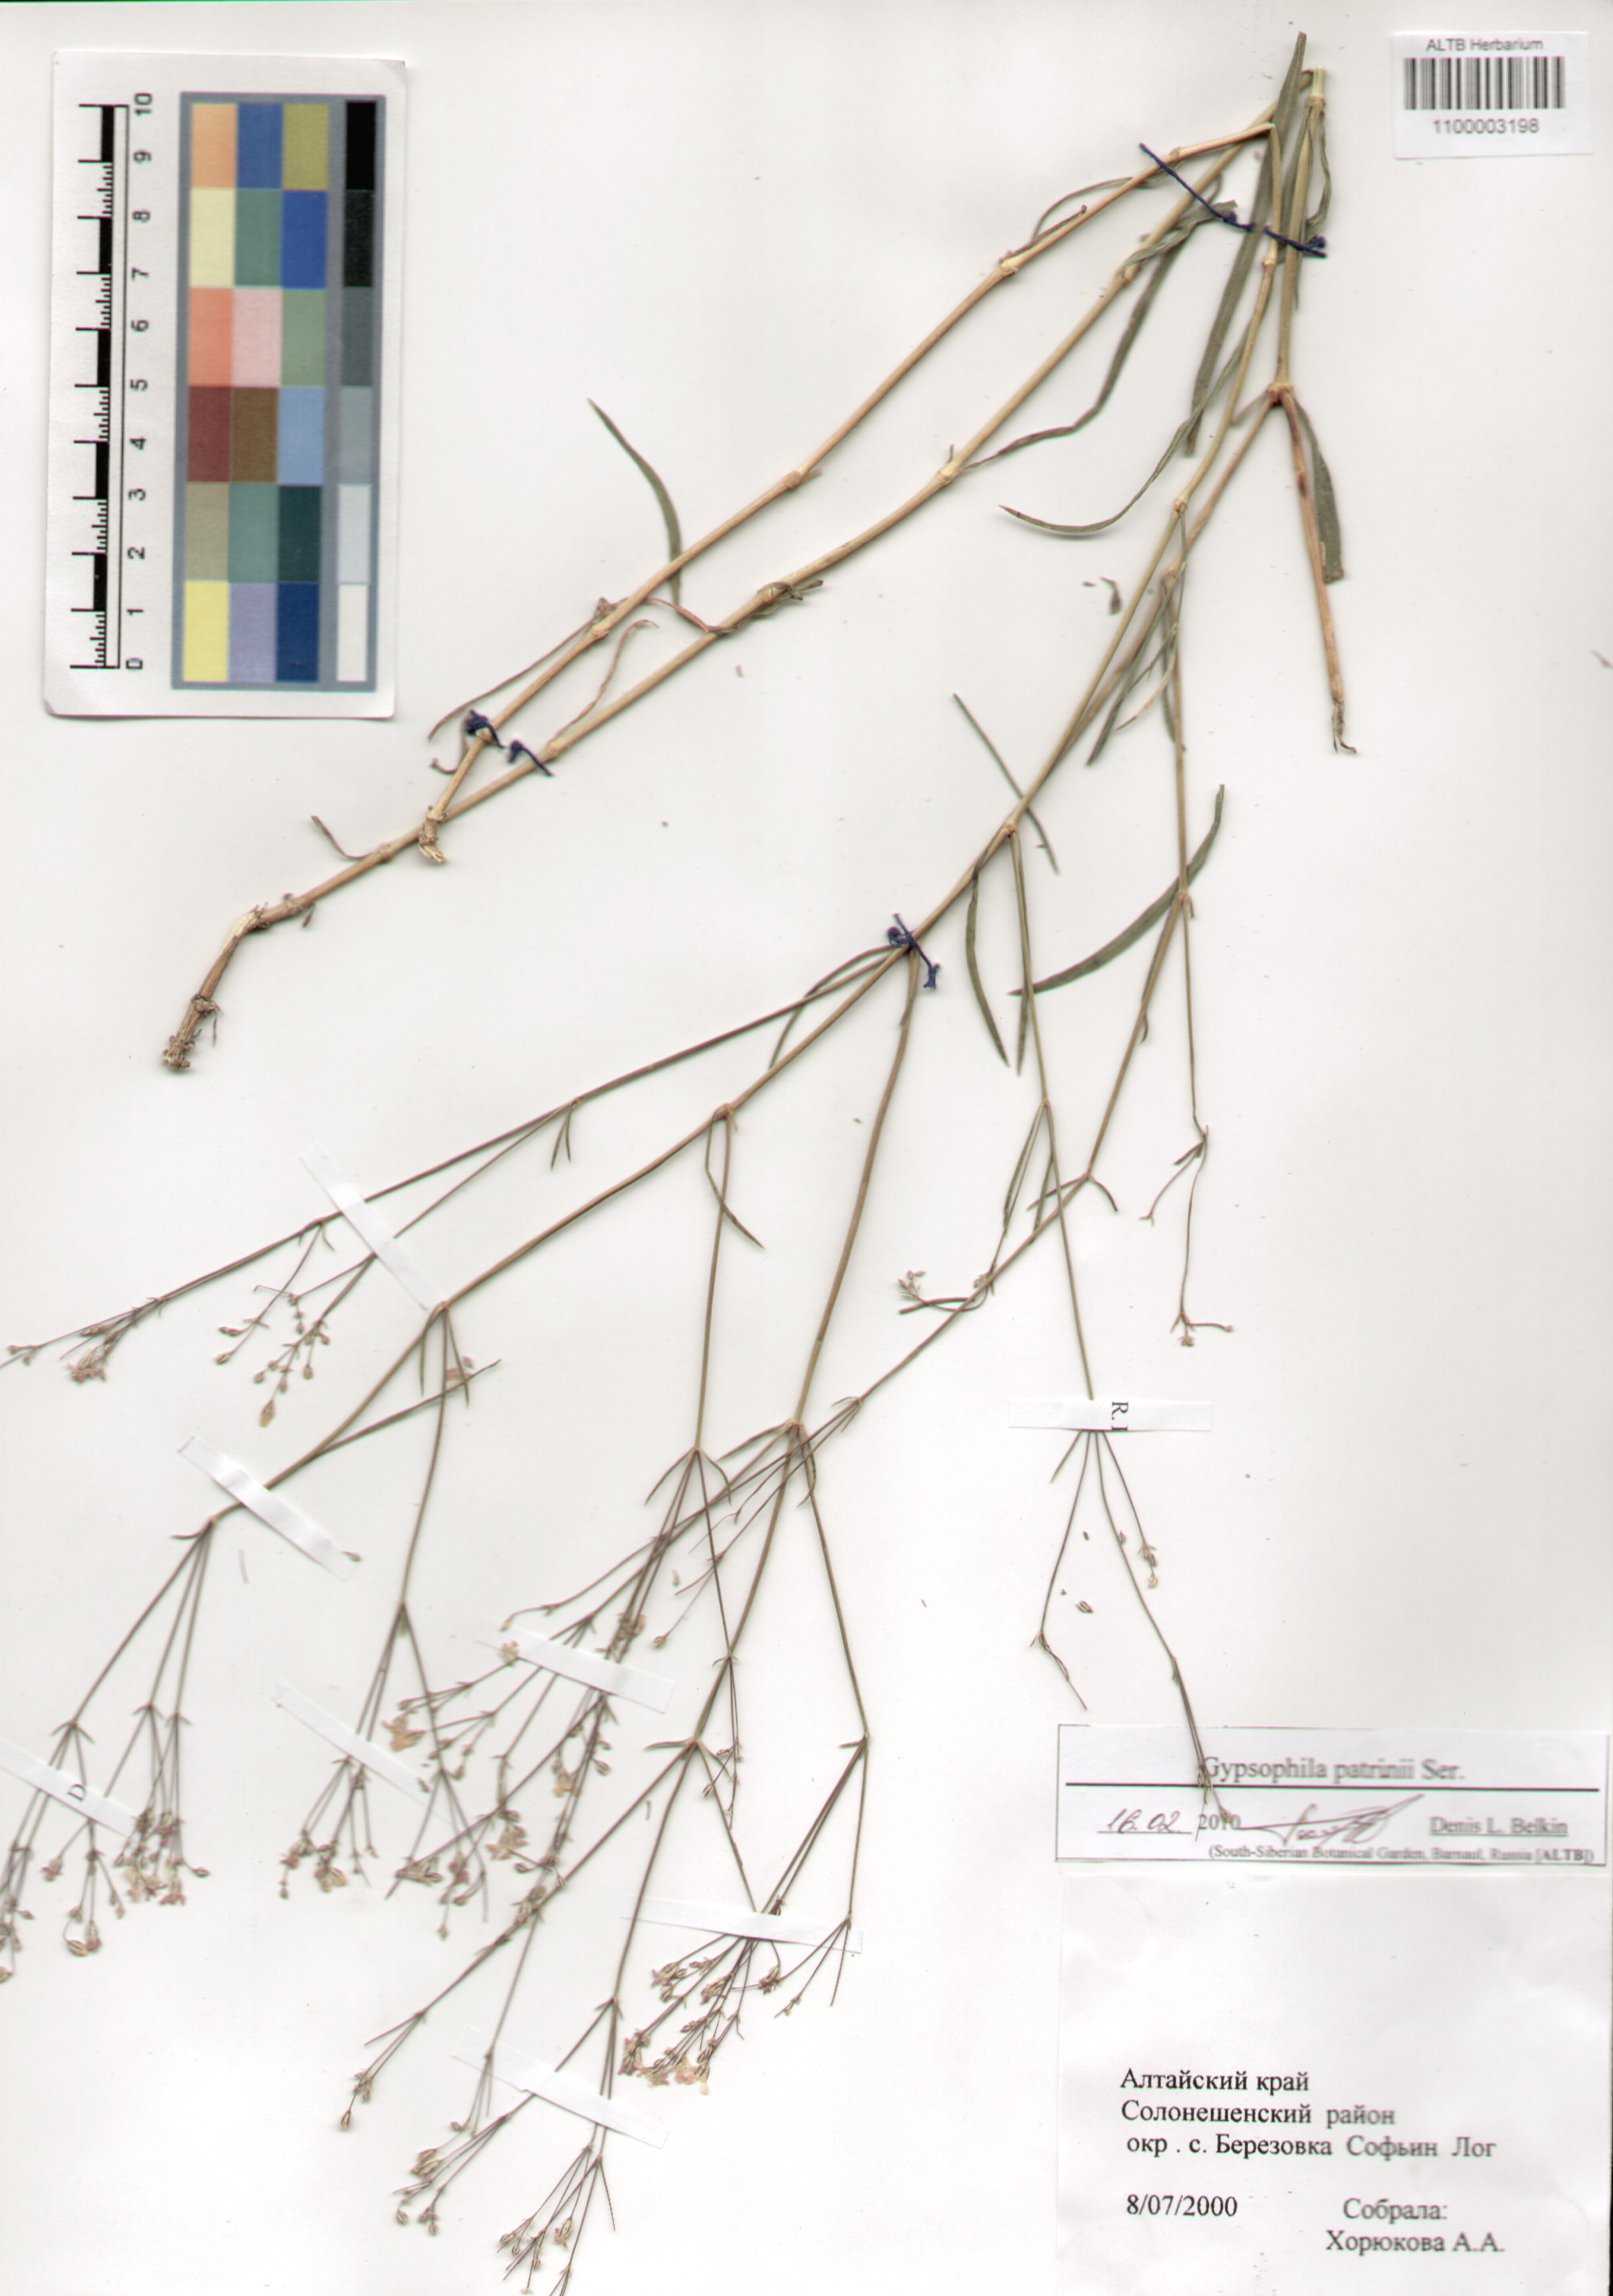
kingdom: Plantae
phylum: Tracheophyta
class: Magnoliopsida
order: Caryophyllales
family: Caryophyllaceae
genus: Gypsophila
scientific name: Gypsophila patrinii
